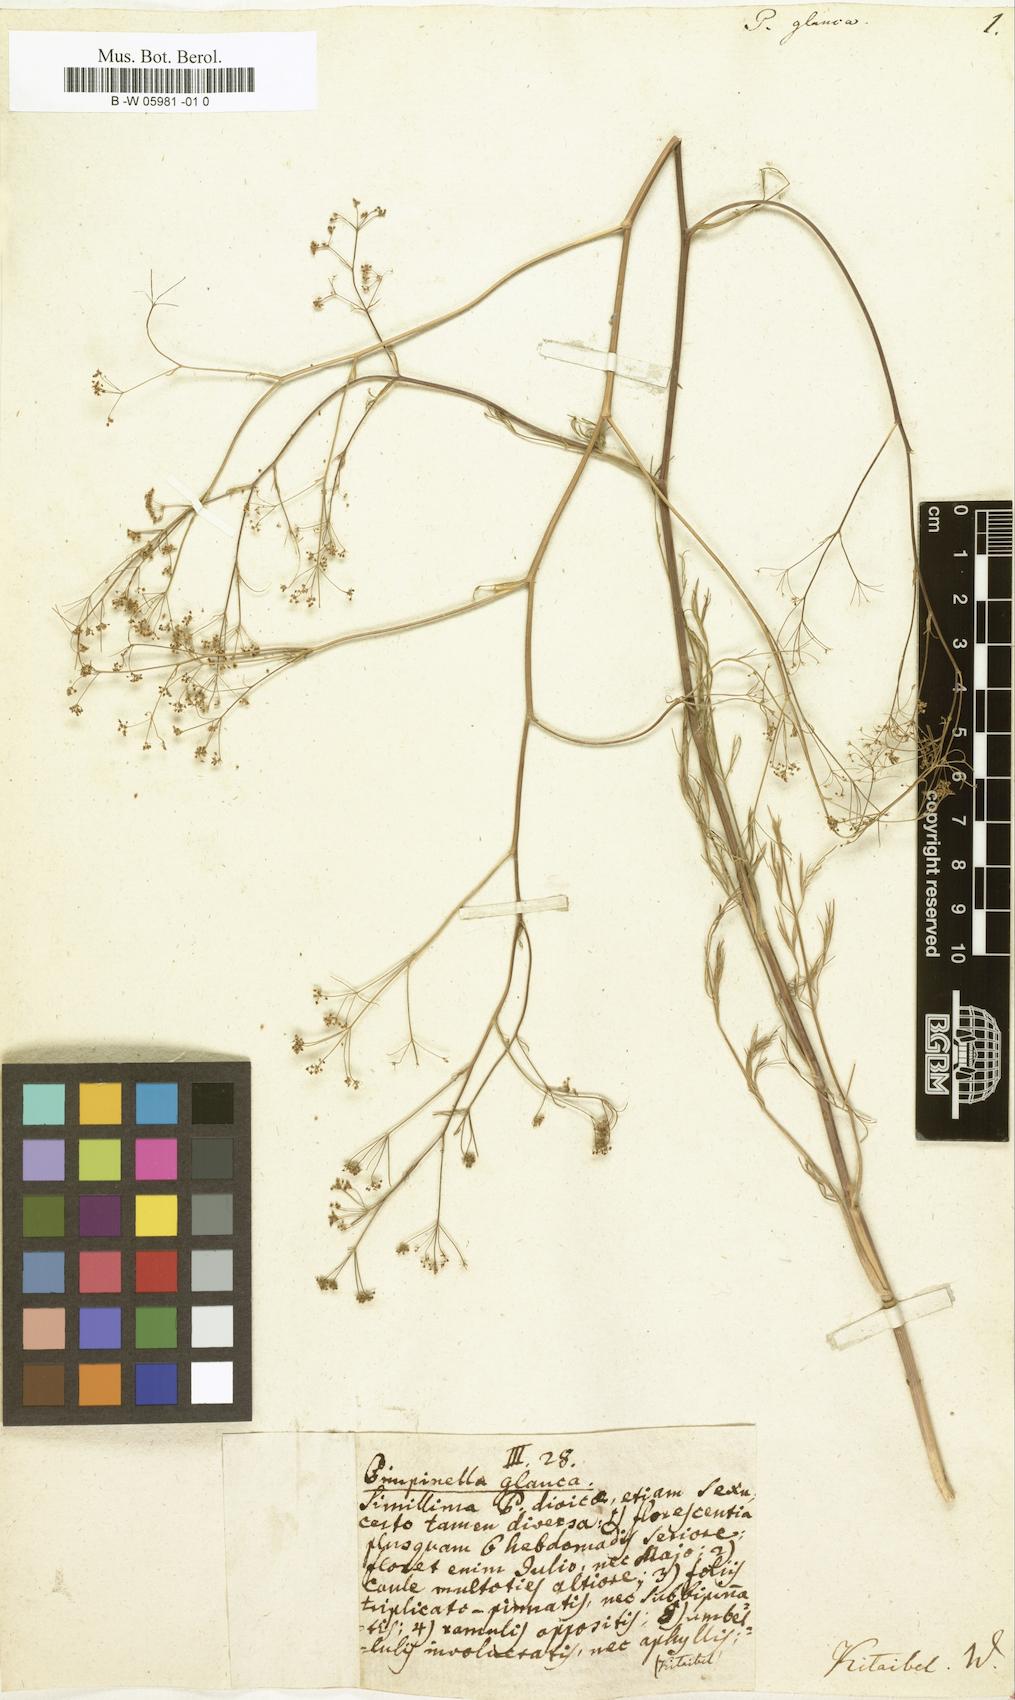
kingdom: Plantae
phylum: Tracheophyta
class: Magnoliopsida
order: Apiales
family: Apiaceae
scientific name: Apiaceae
